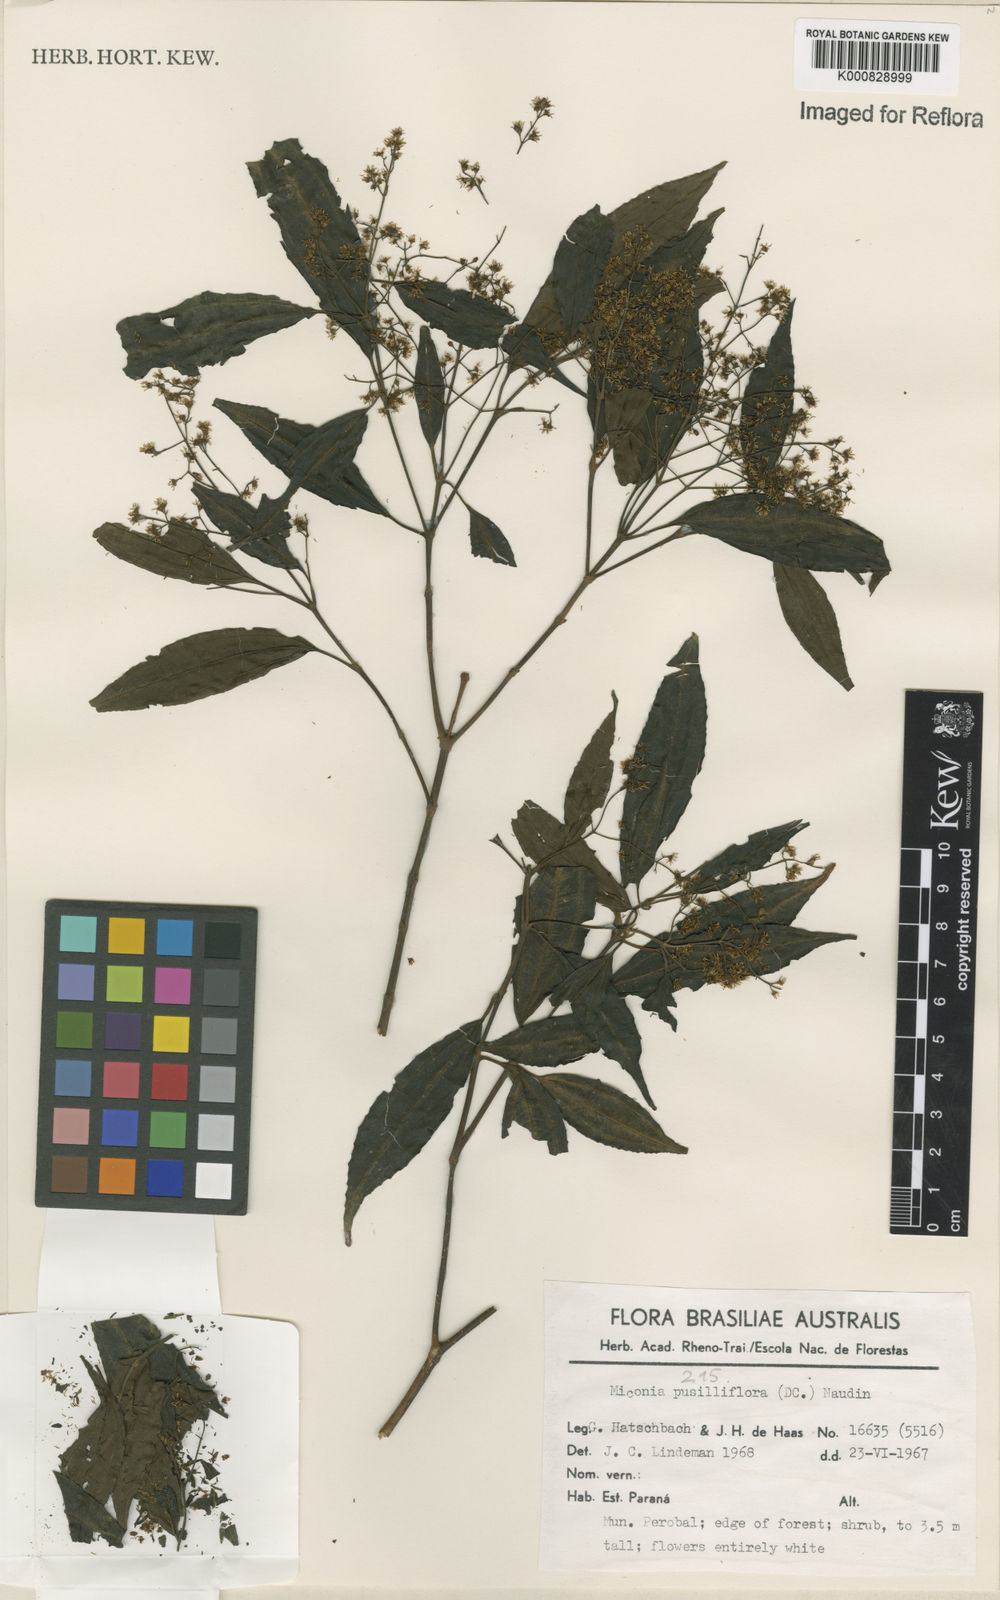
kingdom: Plantae
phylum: Tracheophyta
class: Magnoliopsida
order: Myrtales
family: Melastomataceae
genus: Miconia
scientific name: Miconia pusilliflora
